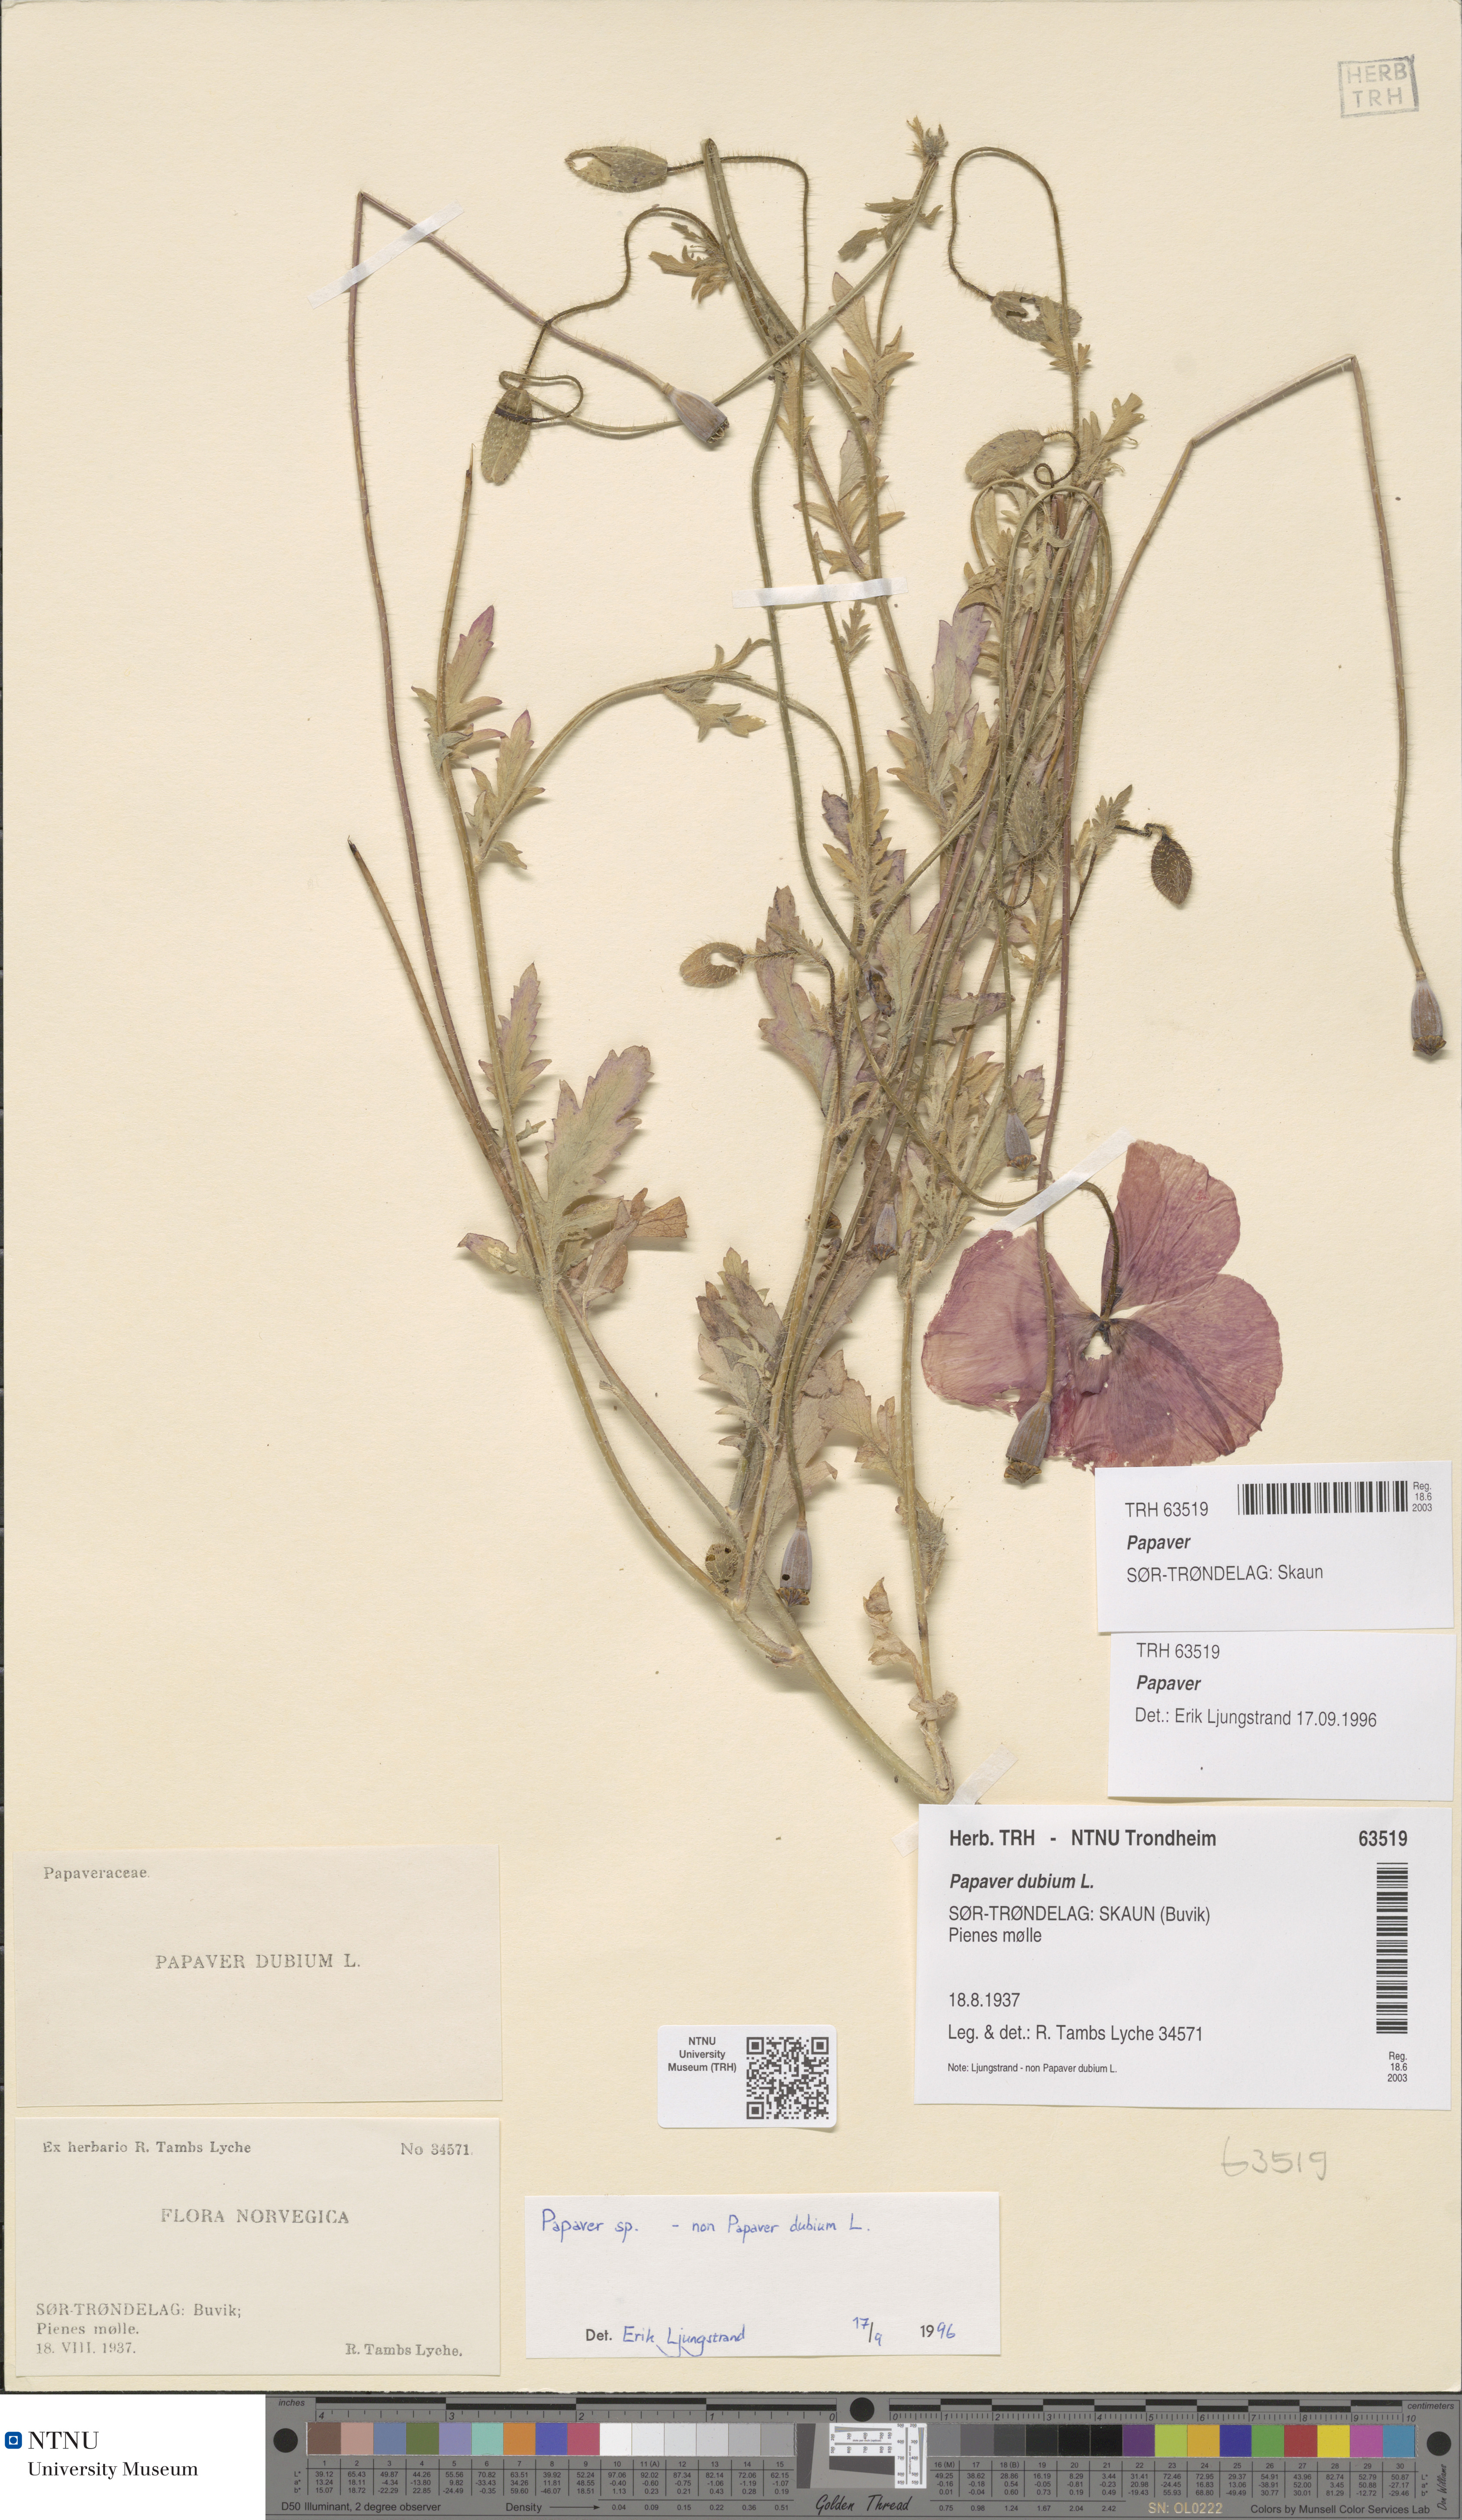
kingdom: Plantae
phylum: Tracheophyta
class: Magnoliopsida
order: Ranunculales
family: Papaveraceae
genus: Papaver
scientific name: Papaver
